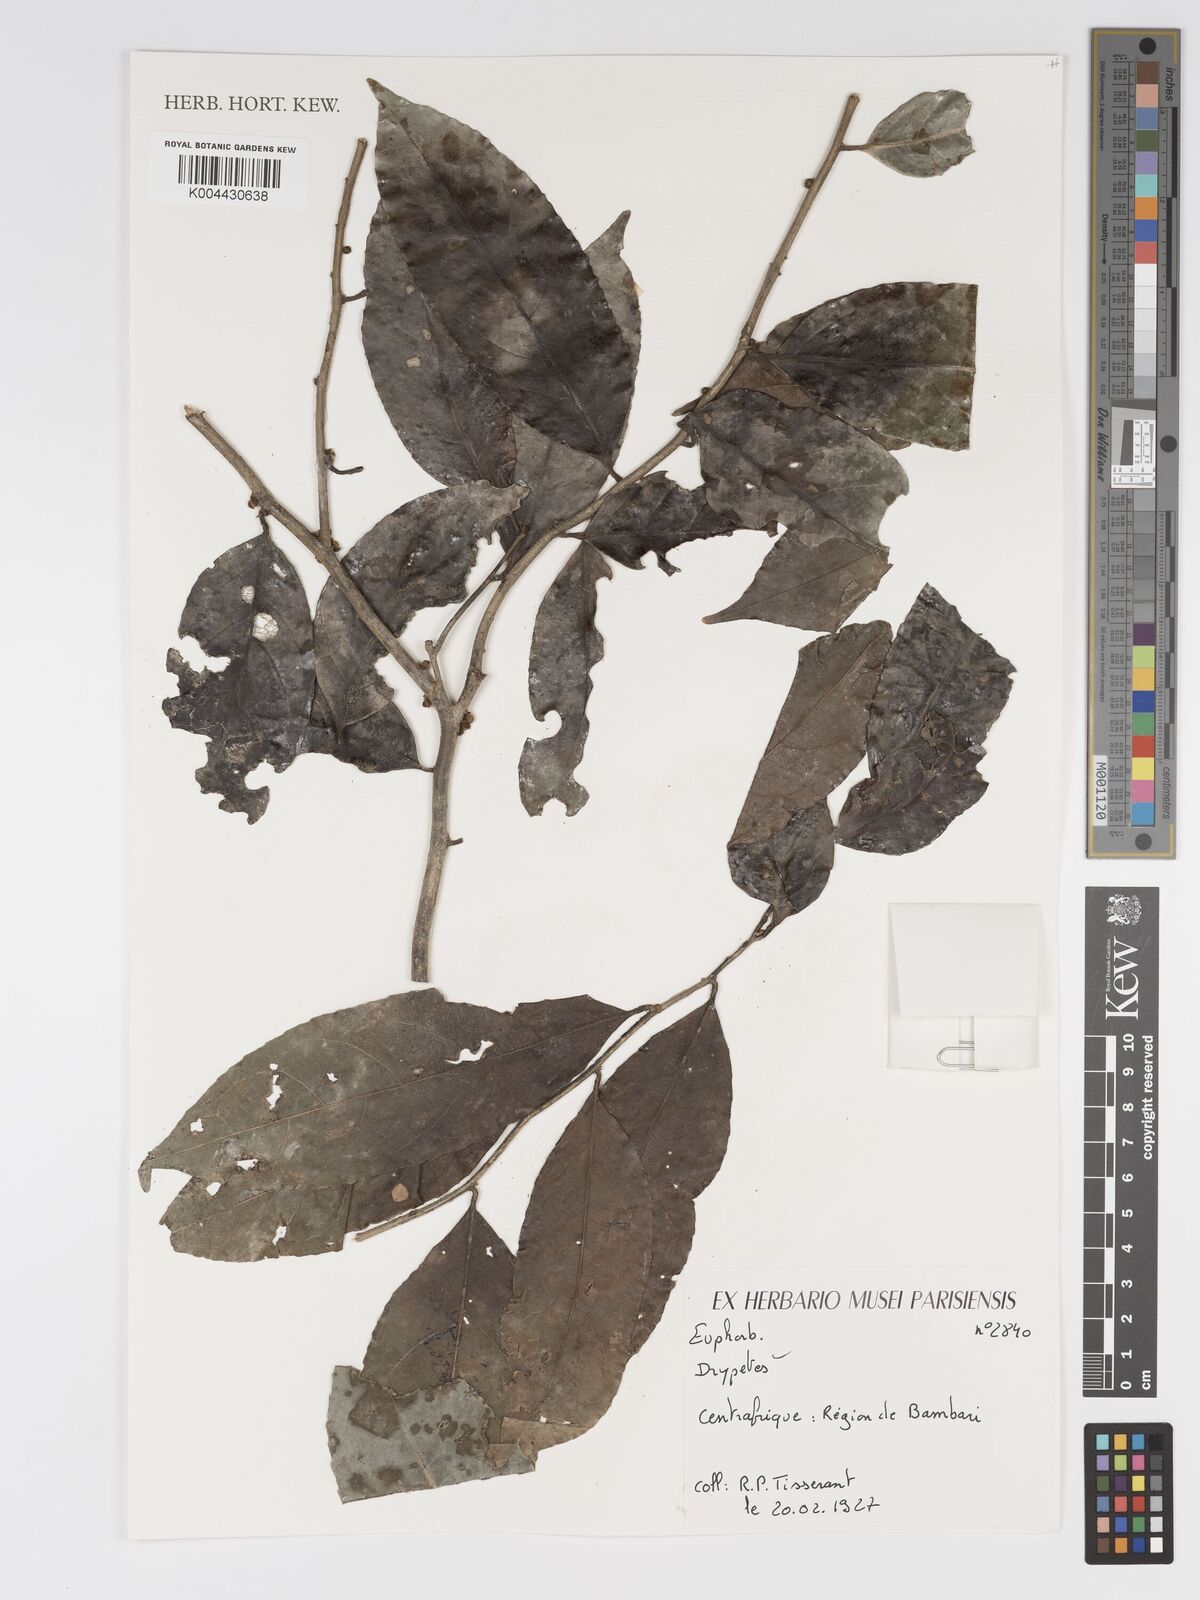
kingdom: Plantae
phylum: Tracheophyta
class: Magnoliopsida
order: Malpighiales
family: Putranjivaceae
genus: Drypetes
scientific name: Drypetes fallax
